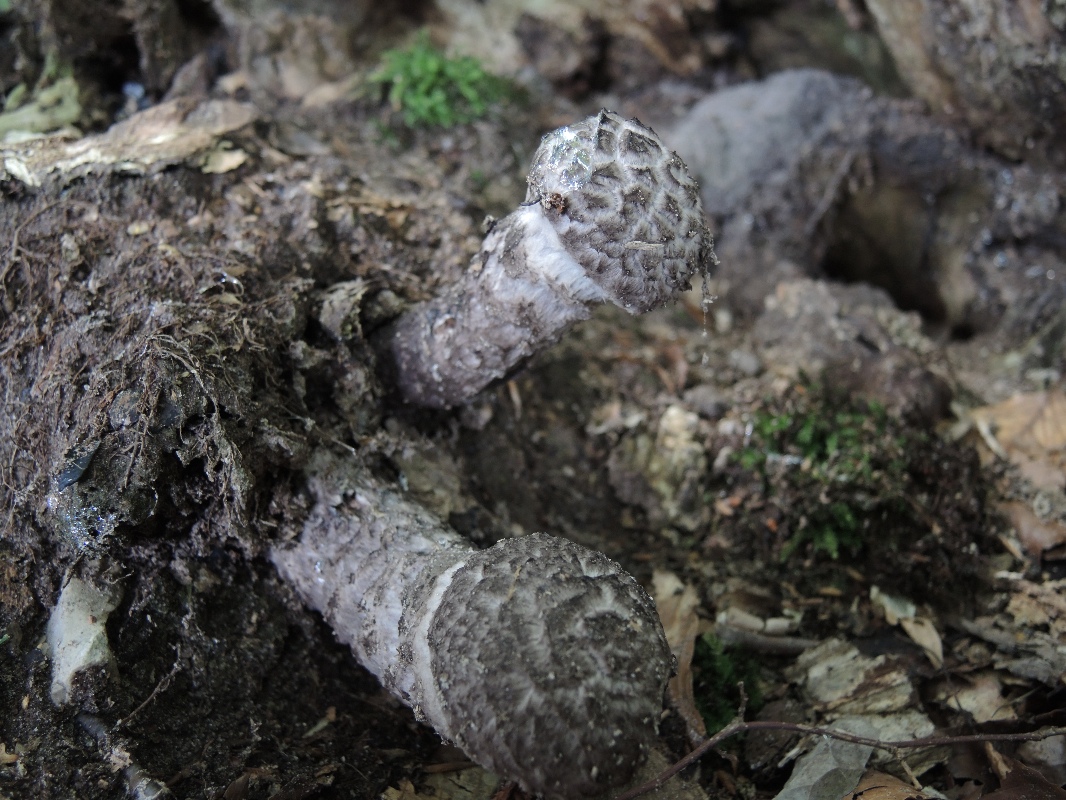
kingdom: Fungi
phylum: Basidiomycota
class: Agaricomycetes
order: Boletales
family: Boletaceae
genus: Strobilomyces
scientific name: Strobilomyces strobilaceus
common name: koglerørhat
